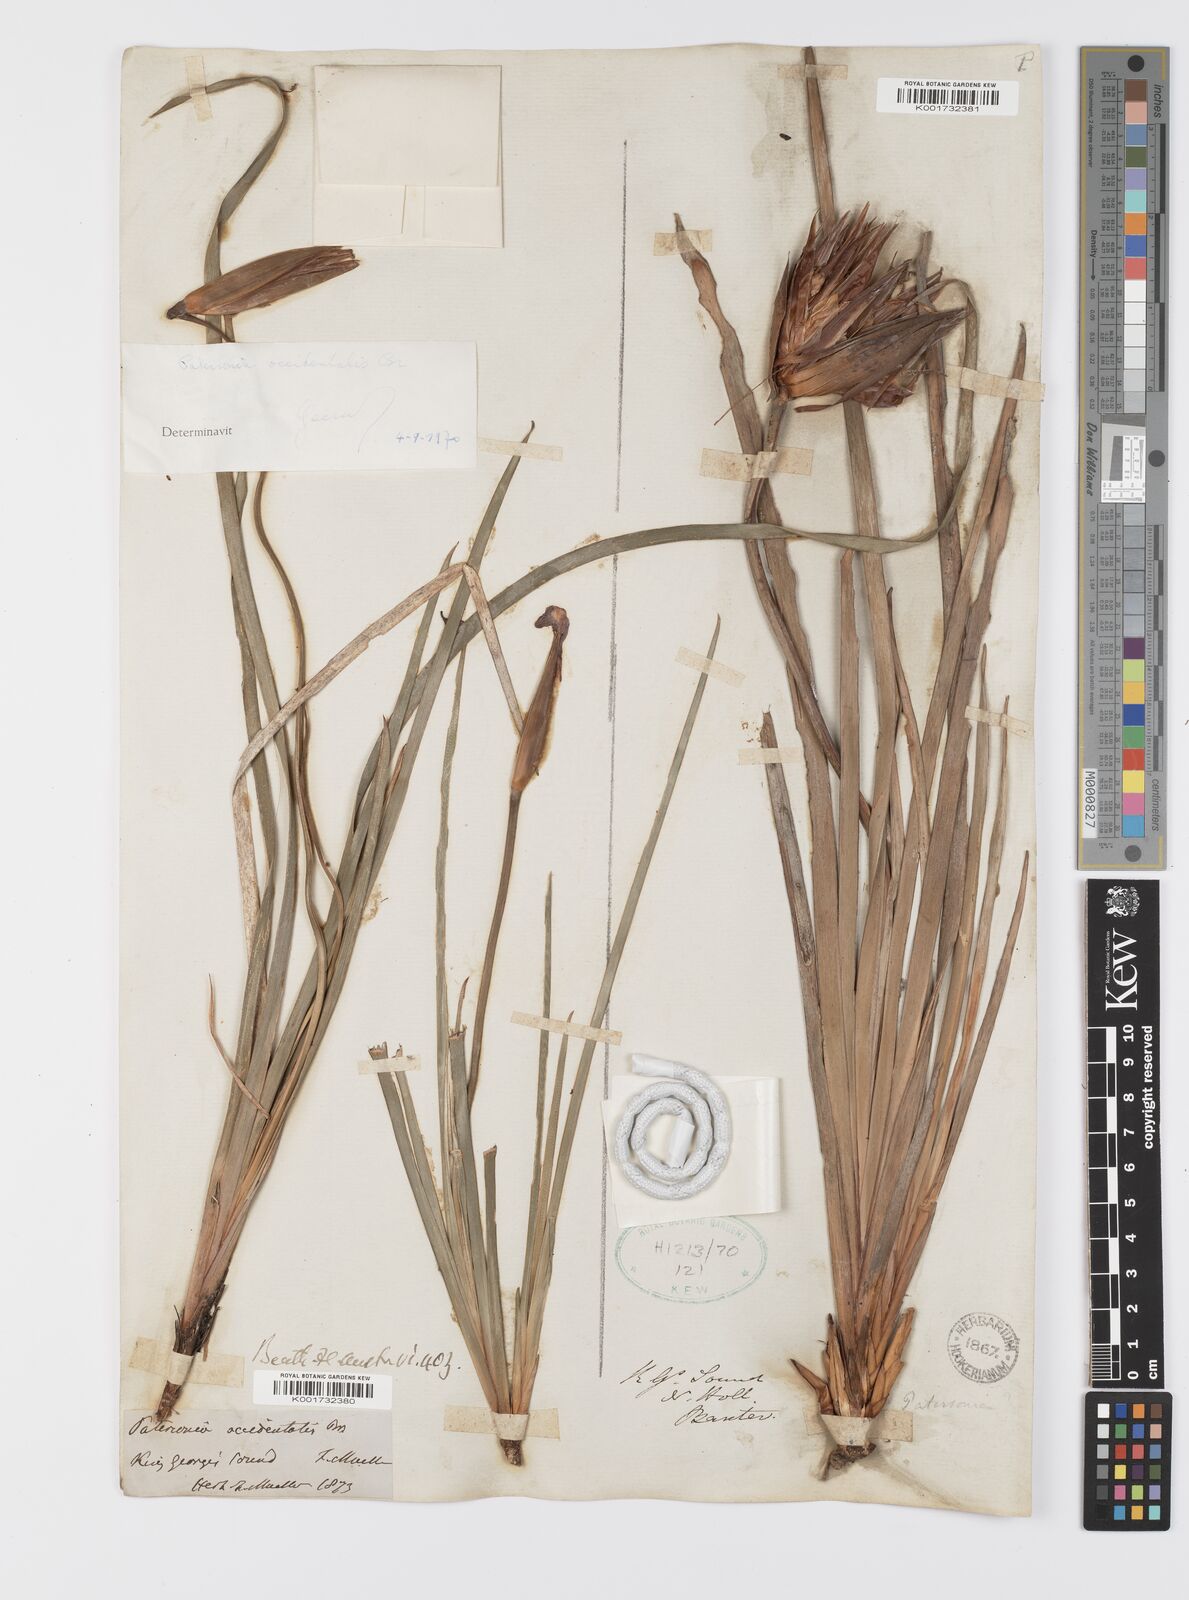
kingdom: Plantae
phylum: Tracheophyta
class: Liliopsida
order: Asparagales
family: Iridaceae
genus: Patersonia
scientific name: Patersonia occidentalis
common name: Long purple-flag
